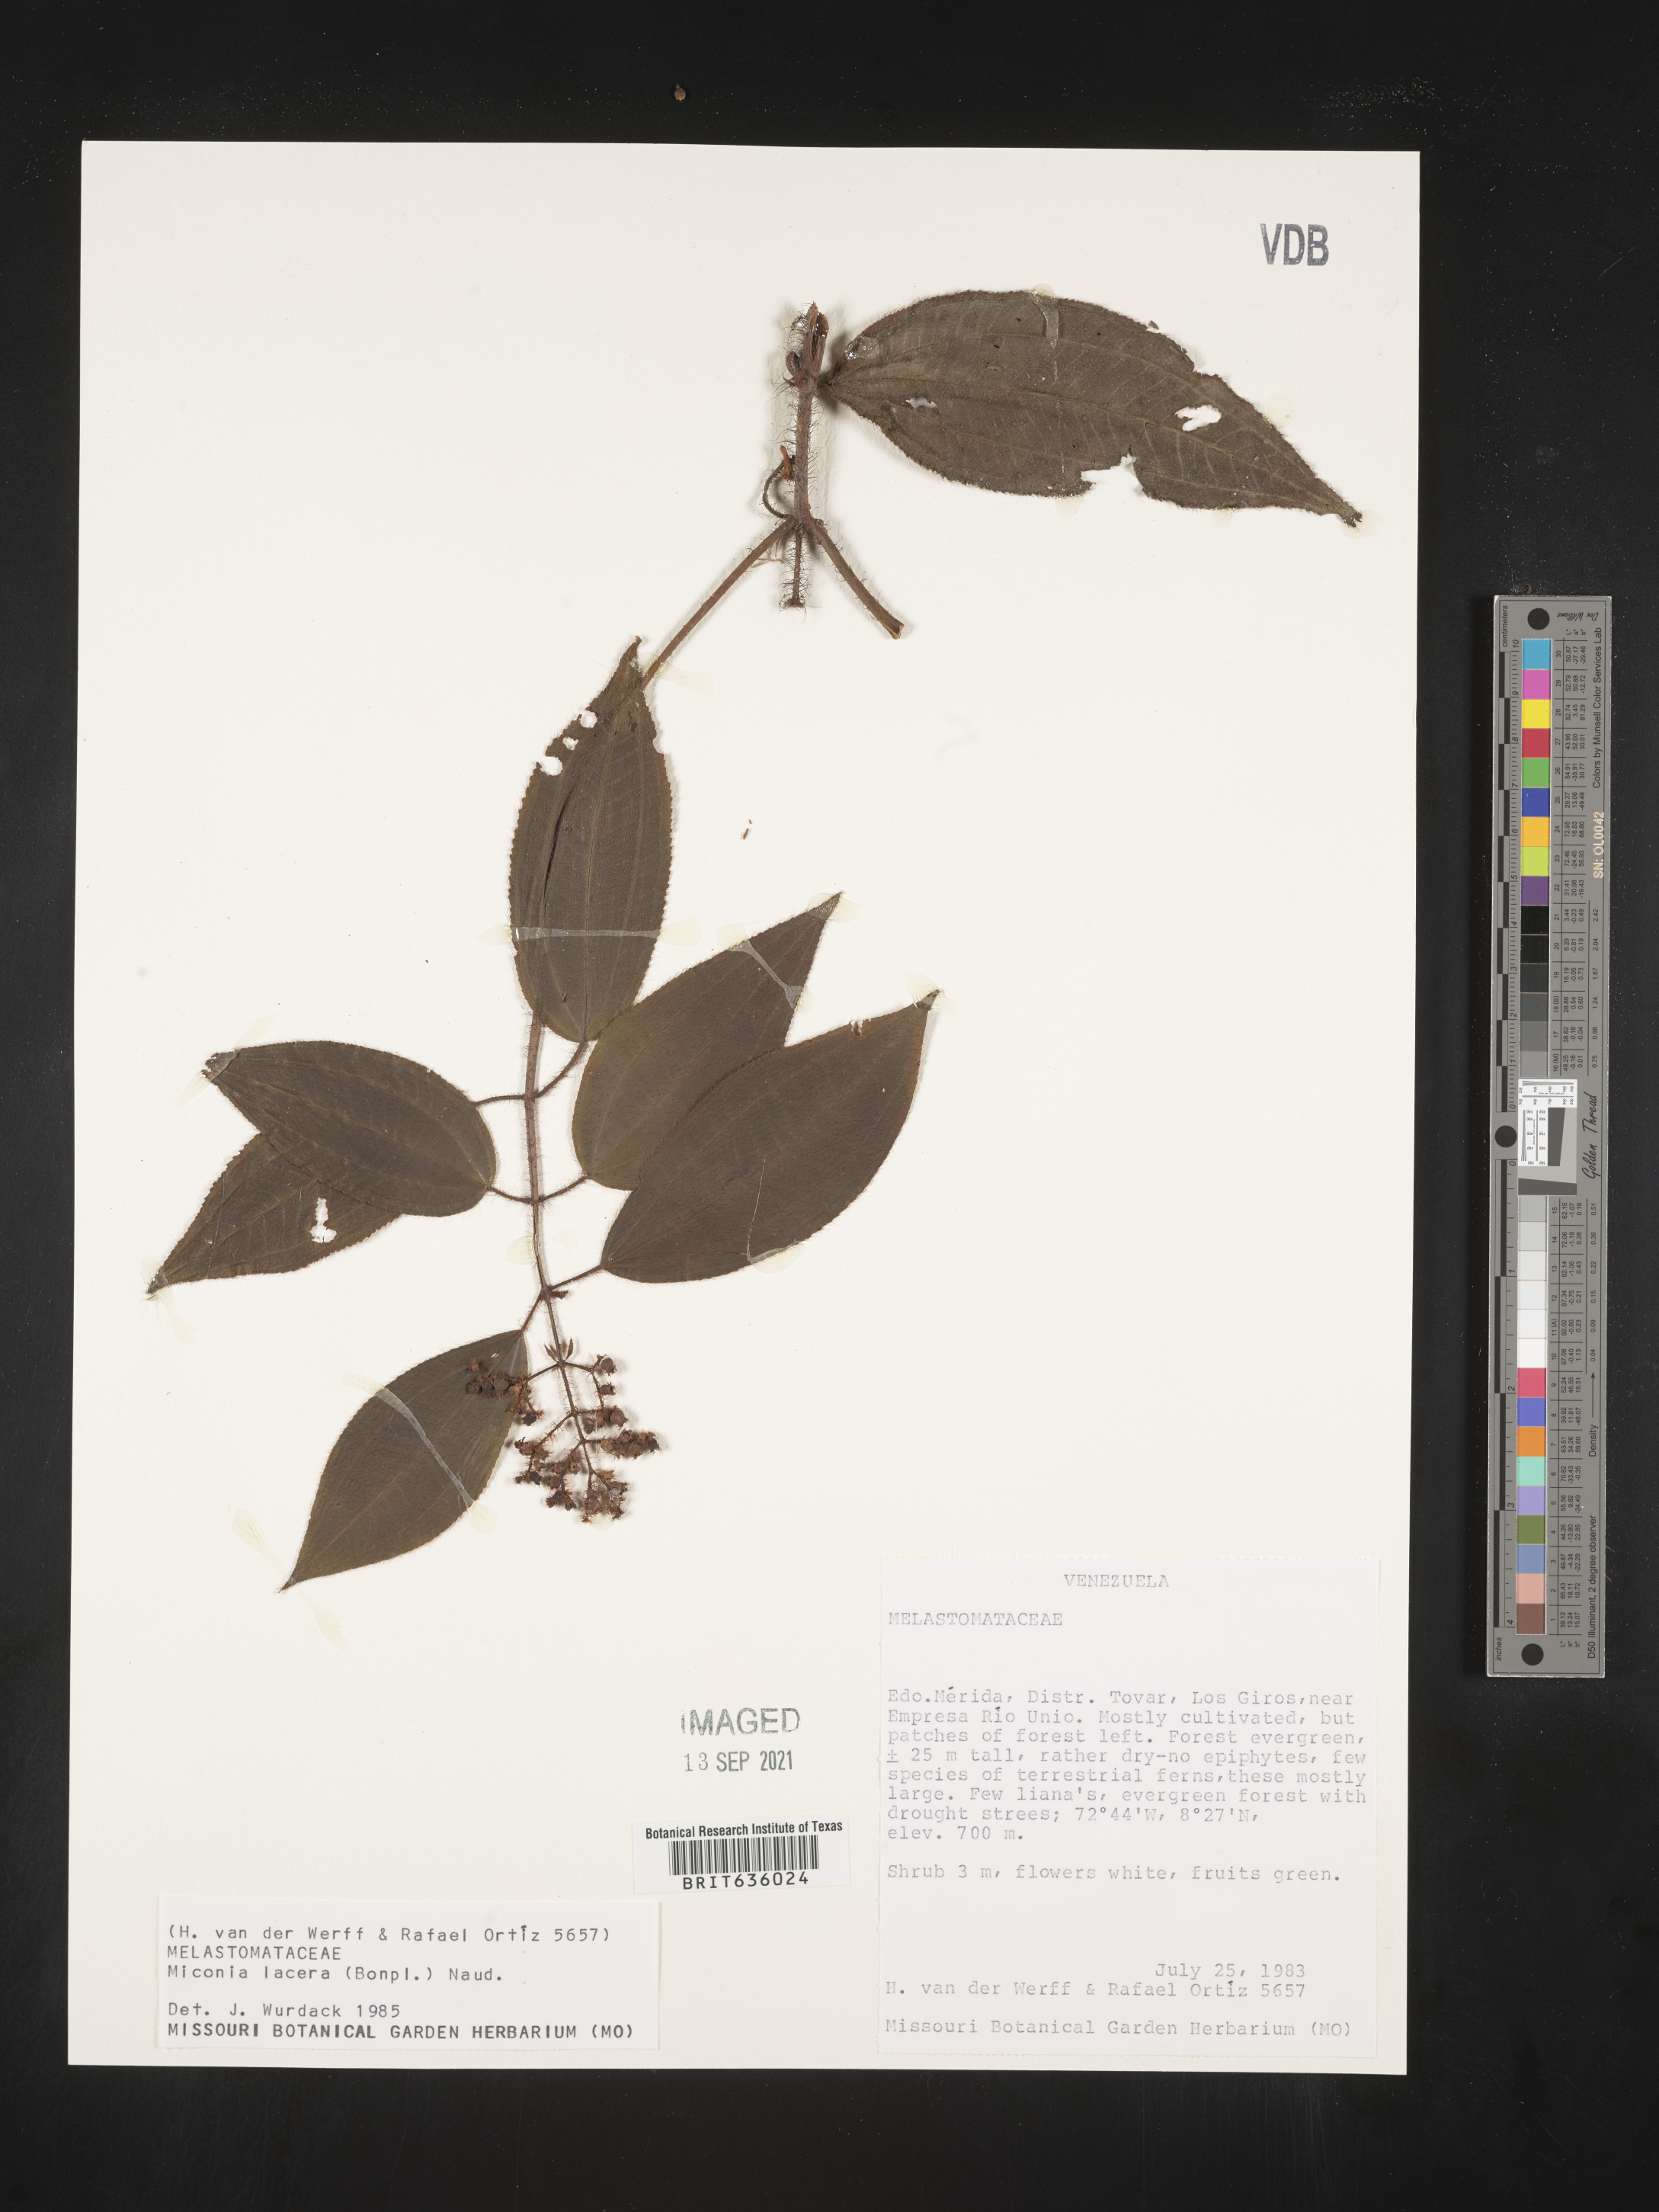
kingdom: Plantae
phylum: Tracheophyta
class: Magnoliopsida
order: Myrtales
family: Melastomataceae
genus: Miconia
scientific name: Miconia
